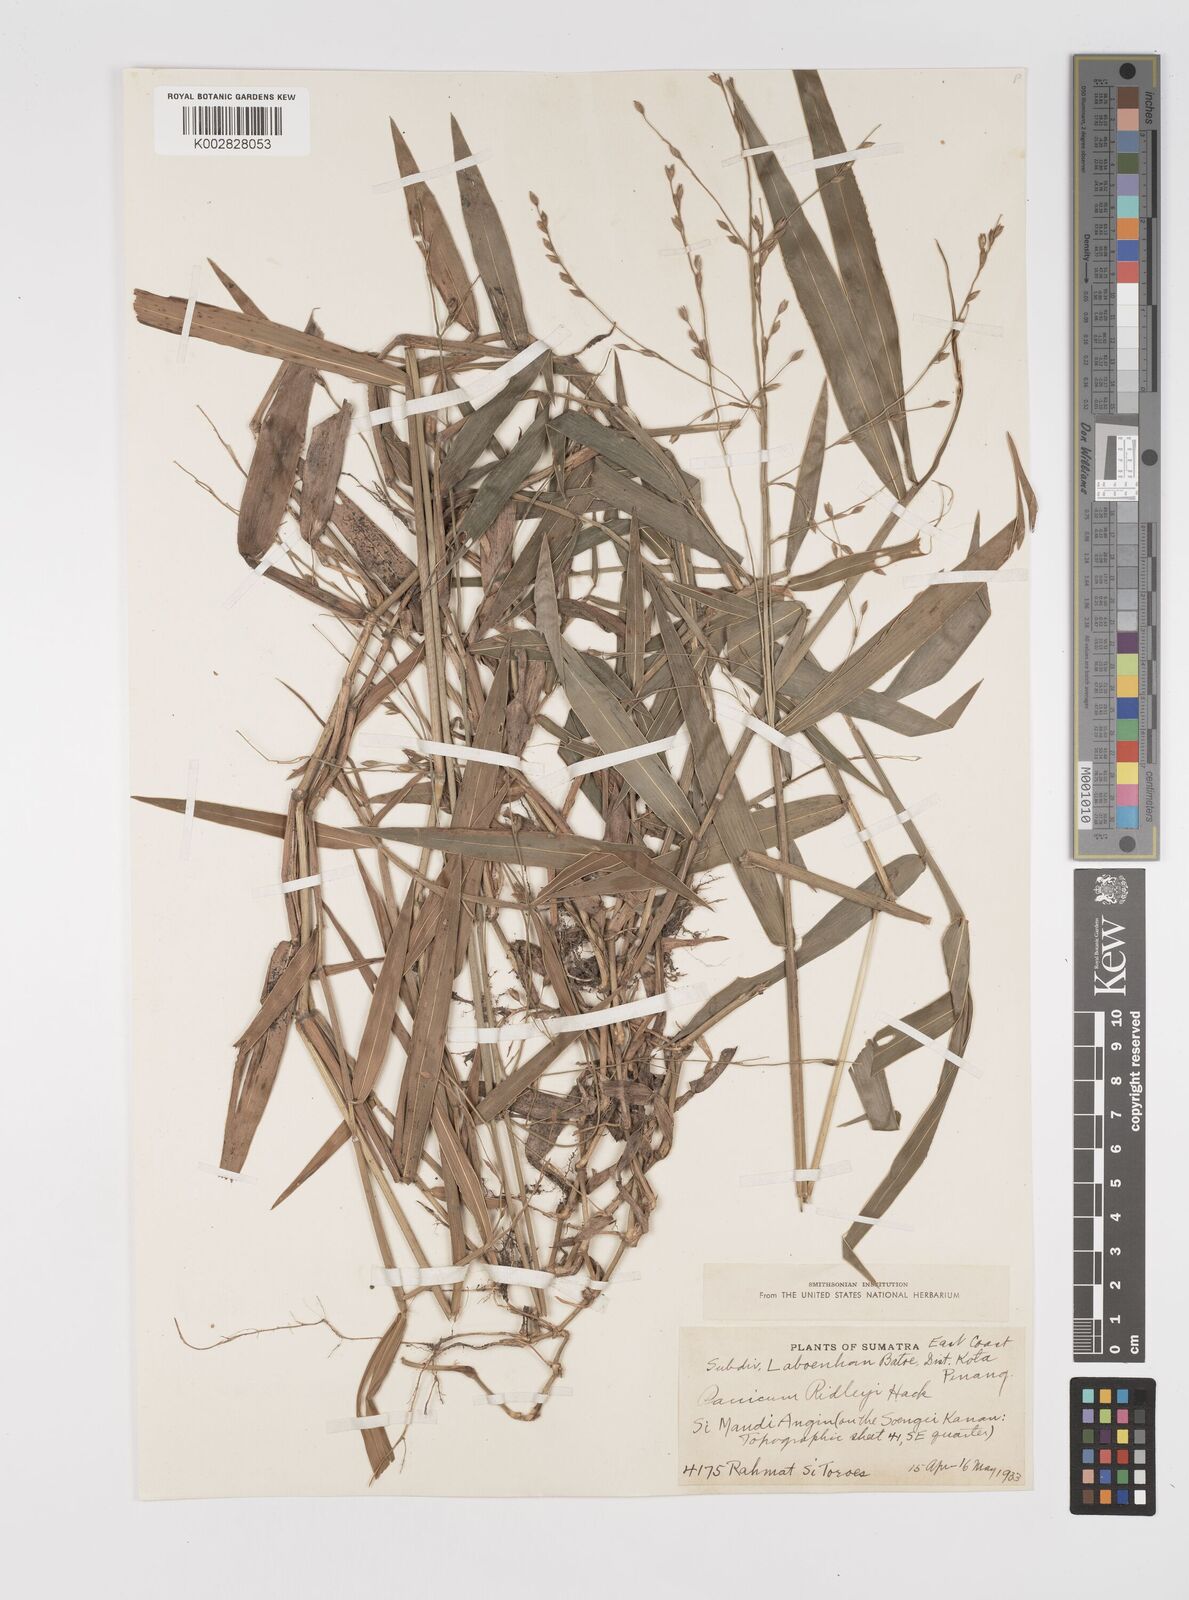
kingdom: Plantae
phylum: Tracheophyta
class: Liliopsida
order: Poales
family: Poaceae
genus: Acroceras
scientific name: Acroceras tonkinense
